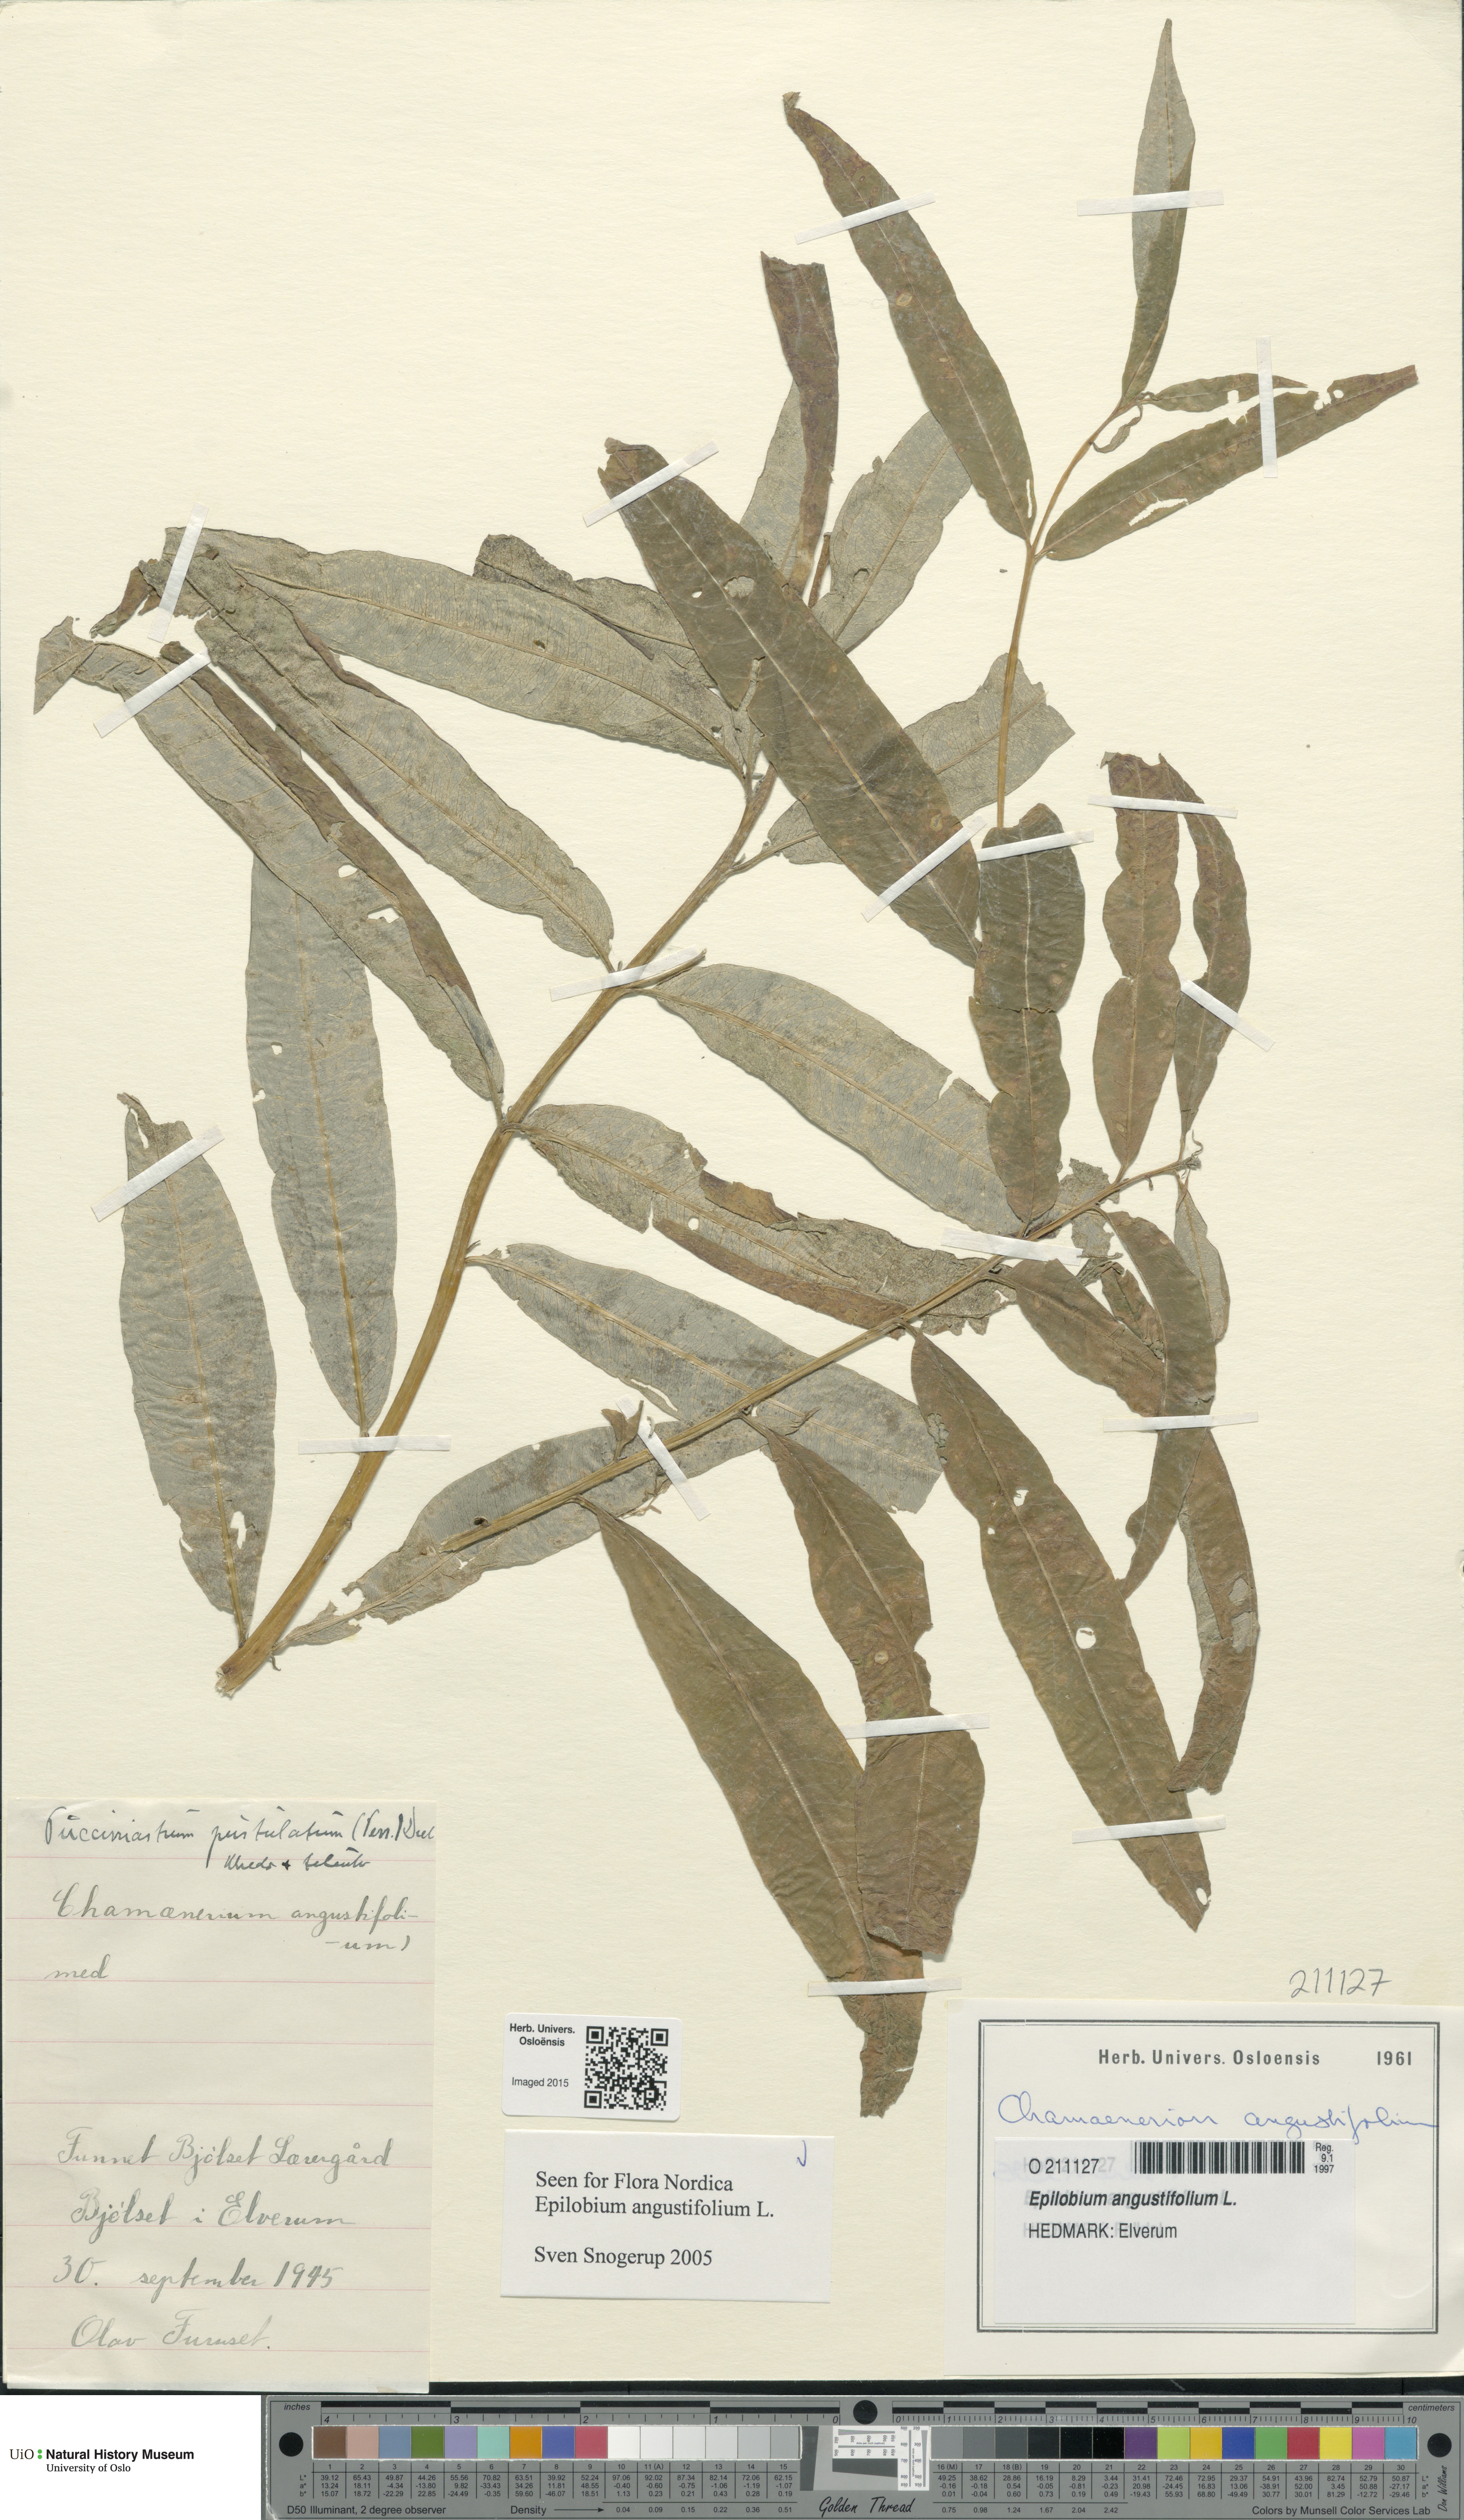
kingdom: Plantae
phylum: Tracheophyta
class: Magnoliopsida
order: Myrtales
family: Onagraceae
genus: Chamaenerion
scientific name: Chamaenerion angustifolium
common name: Fireweed
